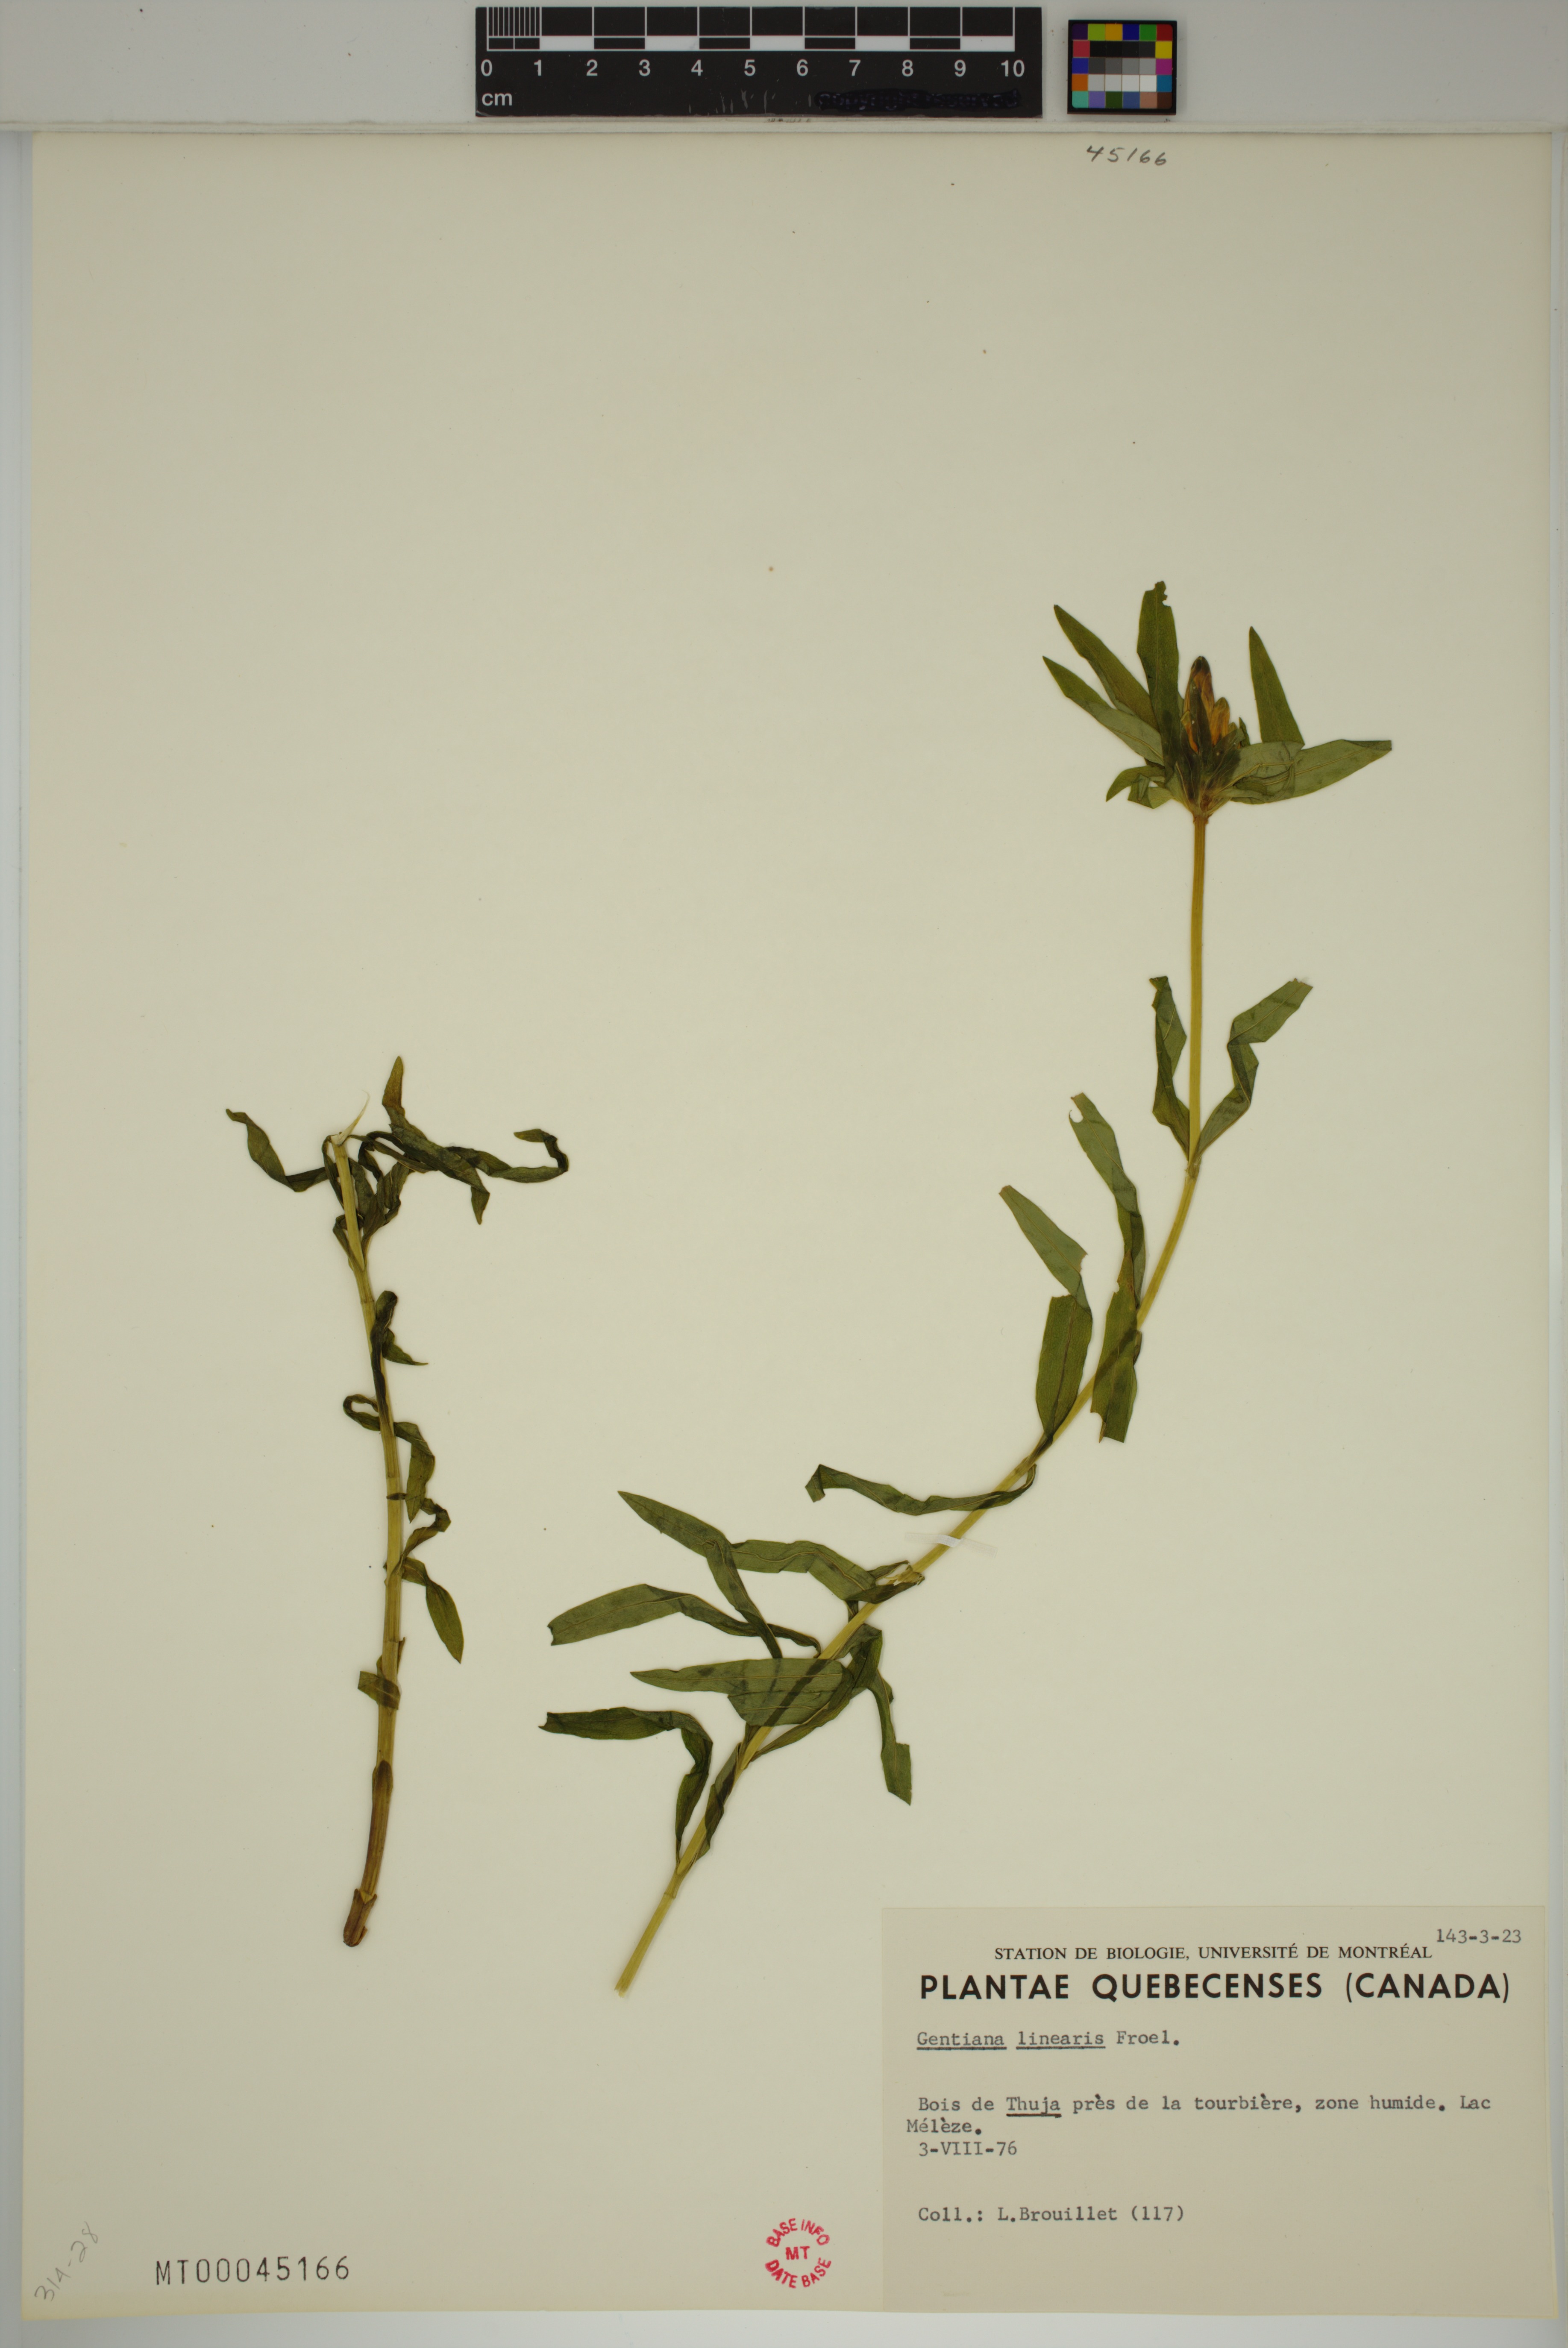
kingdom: Plantae
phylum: Tracheophyta
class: Magnoliopsida
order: Gentianales
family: Gentianaceae
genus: Gentiana
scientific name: Gentiana linearis
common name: Bastard gentian
